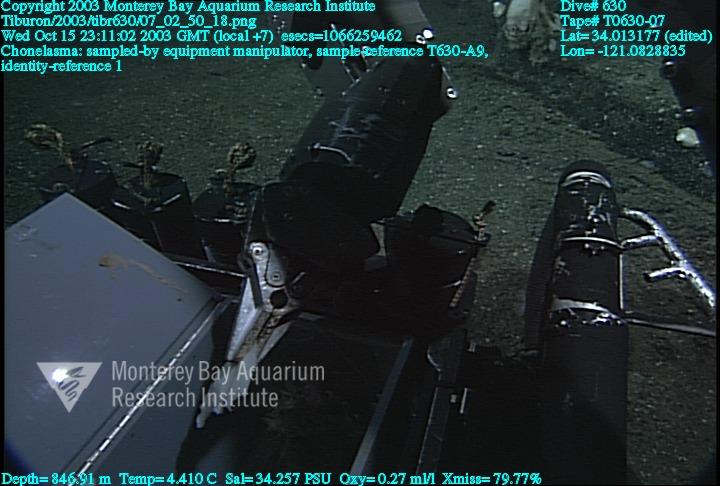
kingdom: Animalia
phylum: Porifera
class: Hexactinellida
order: Sceptrulophora
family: Euretidae
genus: Chonelasma
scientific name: Chonelasma
